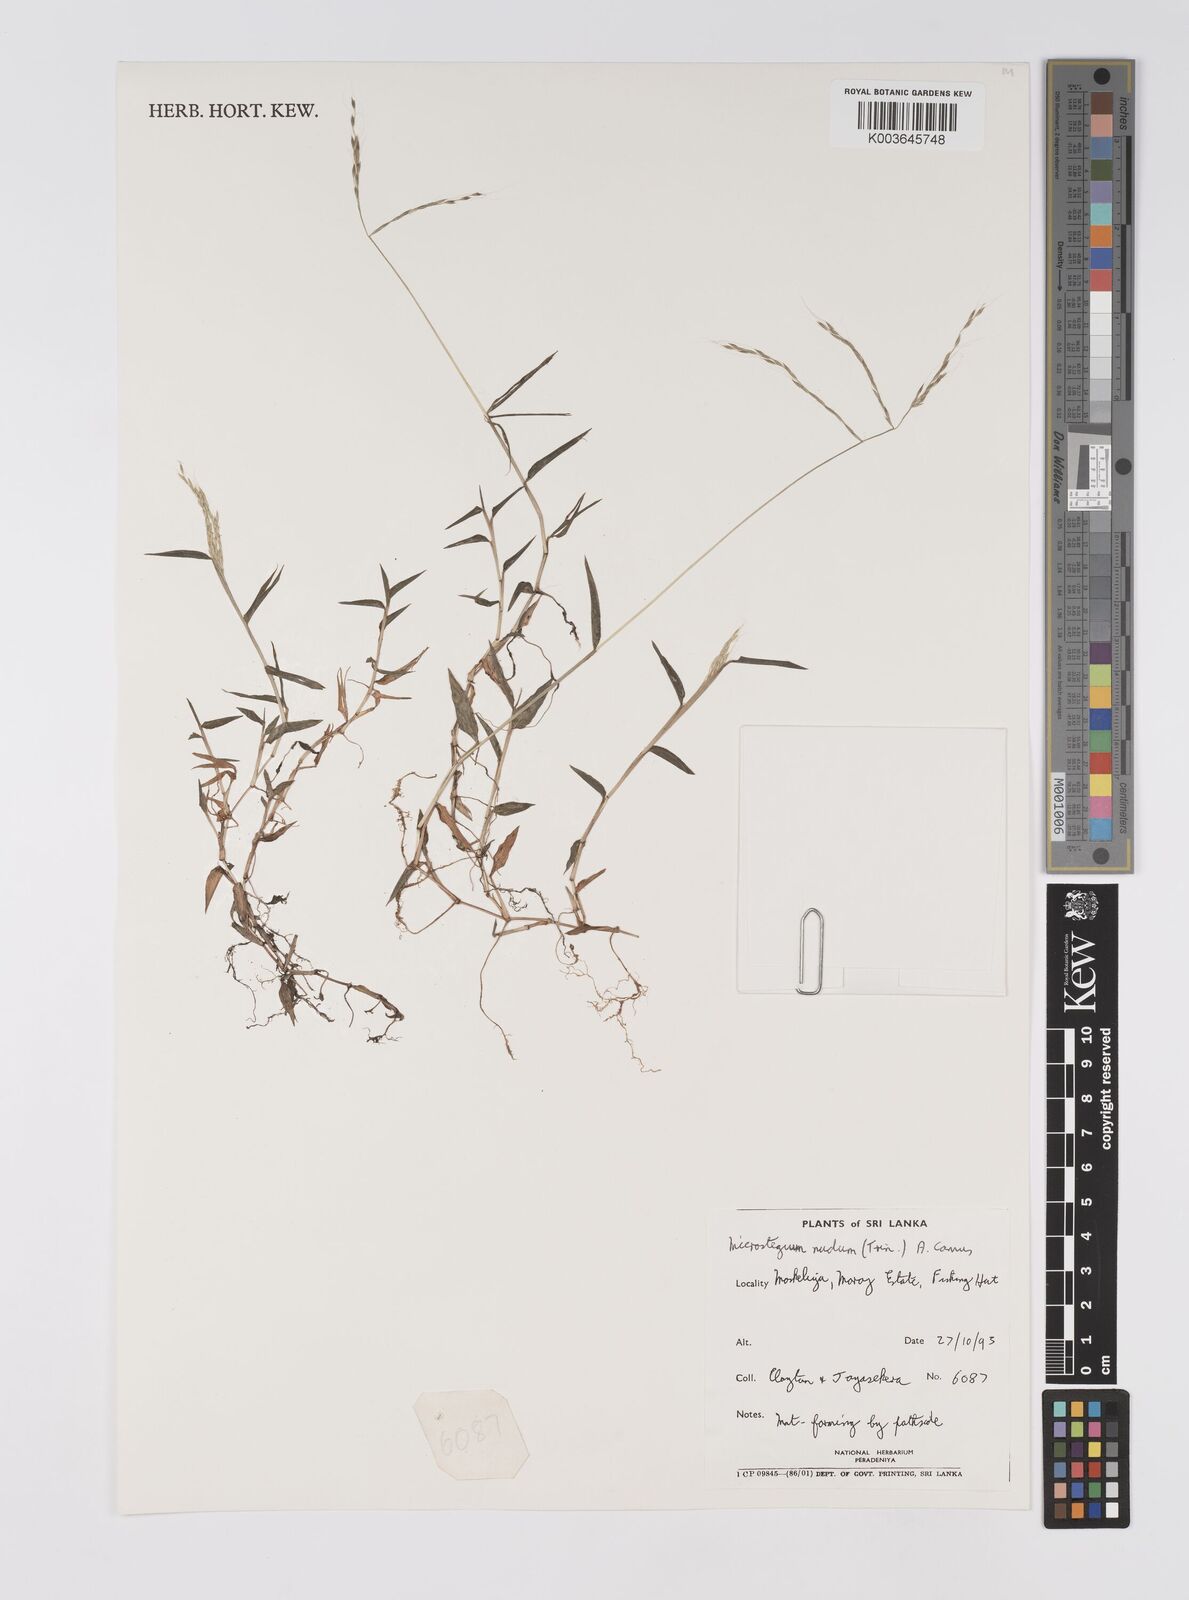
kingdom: Plantae
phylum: Tracheophyta
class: Liliopsida
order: Poales
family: Poaceae
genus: Microstegium
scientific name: Microstegium nudum
